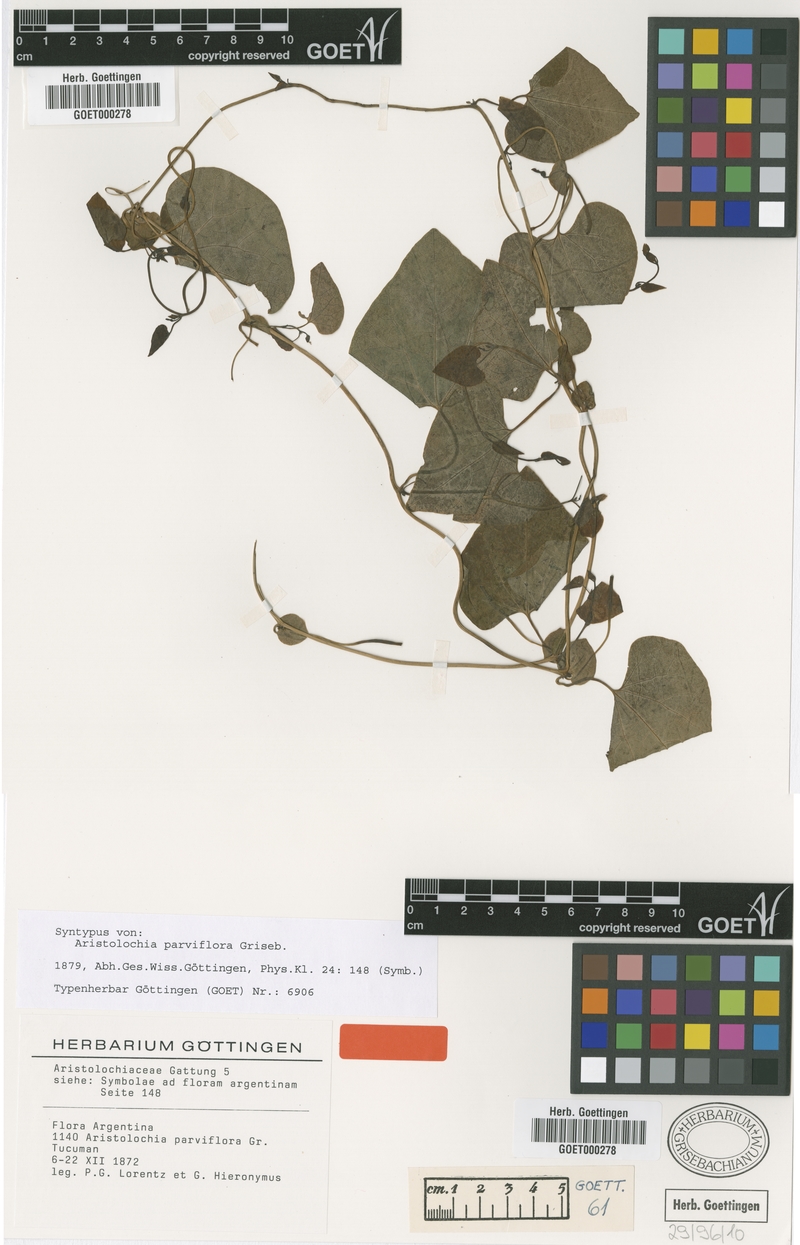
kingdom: Plantae
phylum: Tracheophyta
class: Magnoliopsida
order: Piperales
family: Aristolochiaceae
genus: Aristolochia
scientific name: Aristolochia argentina
